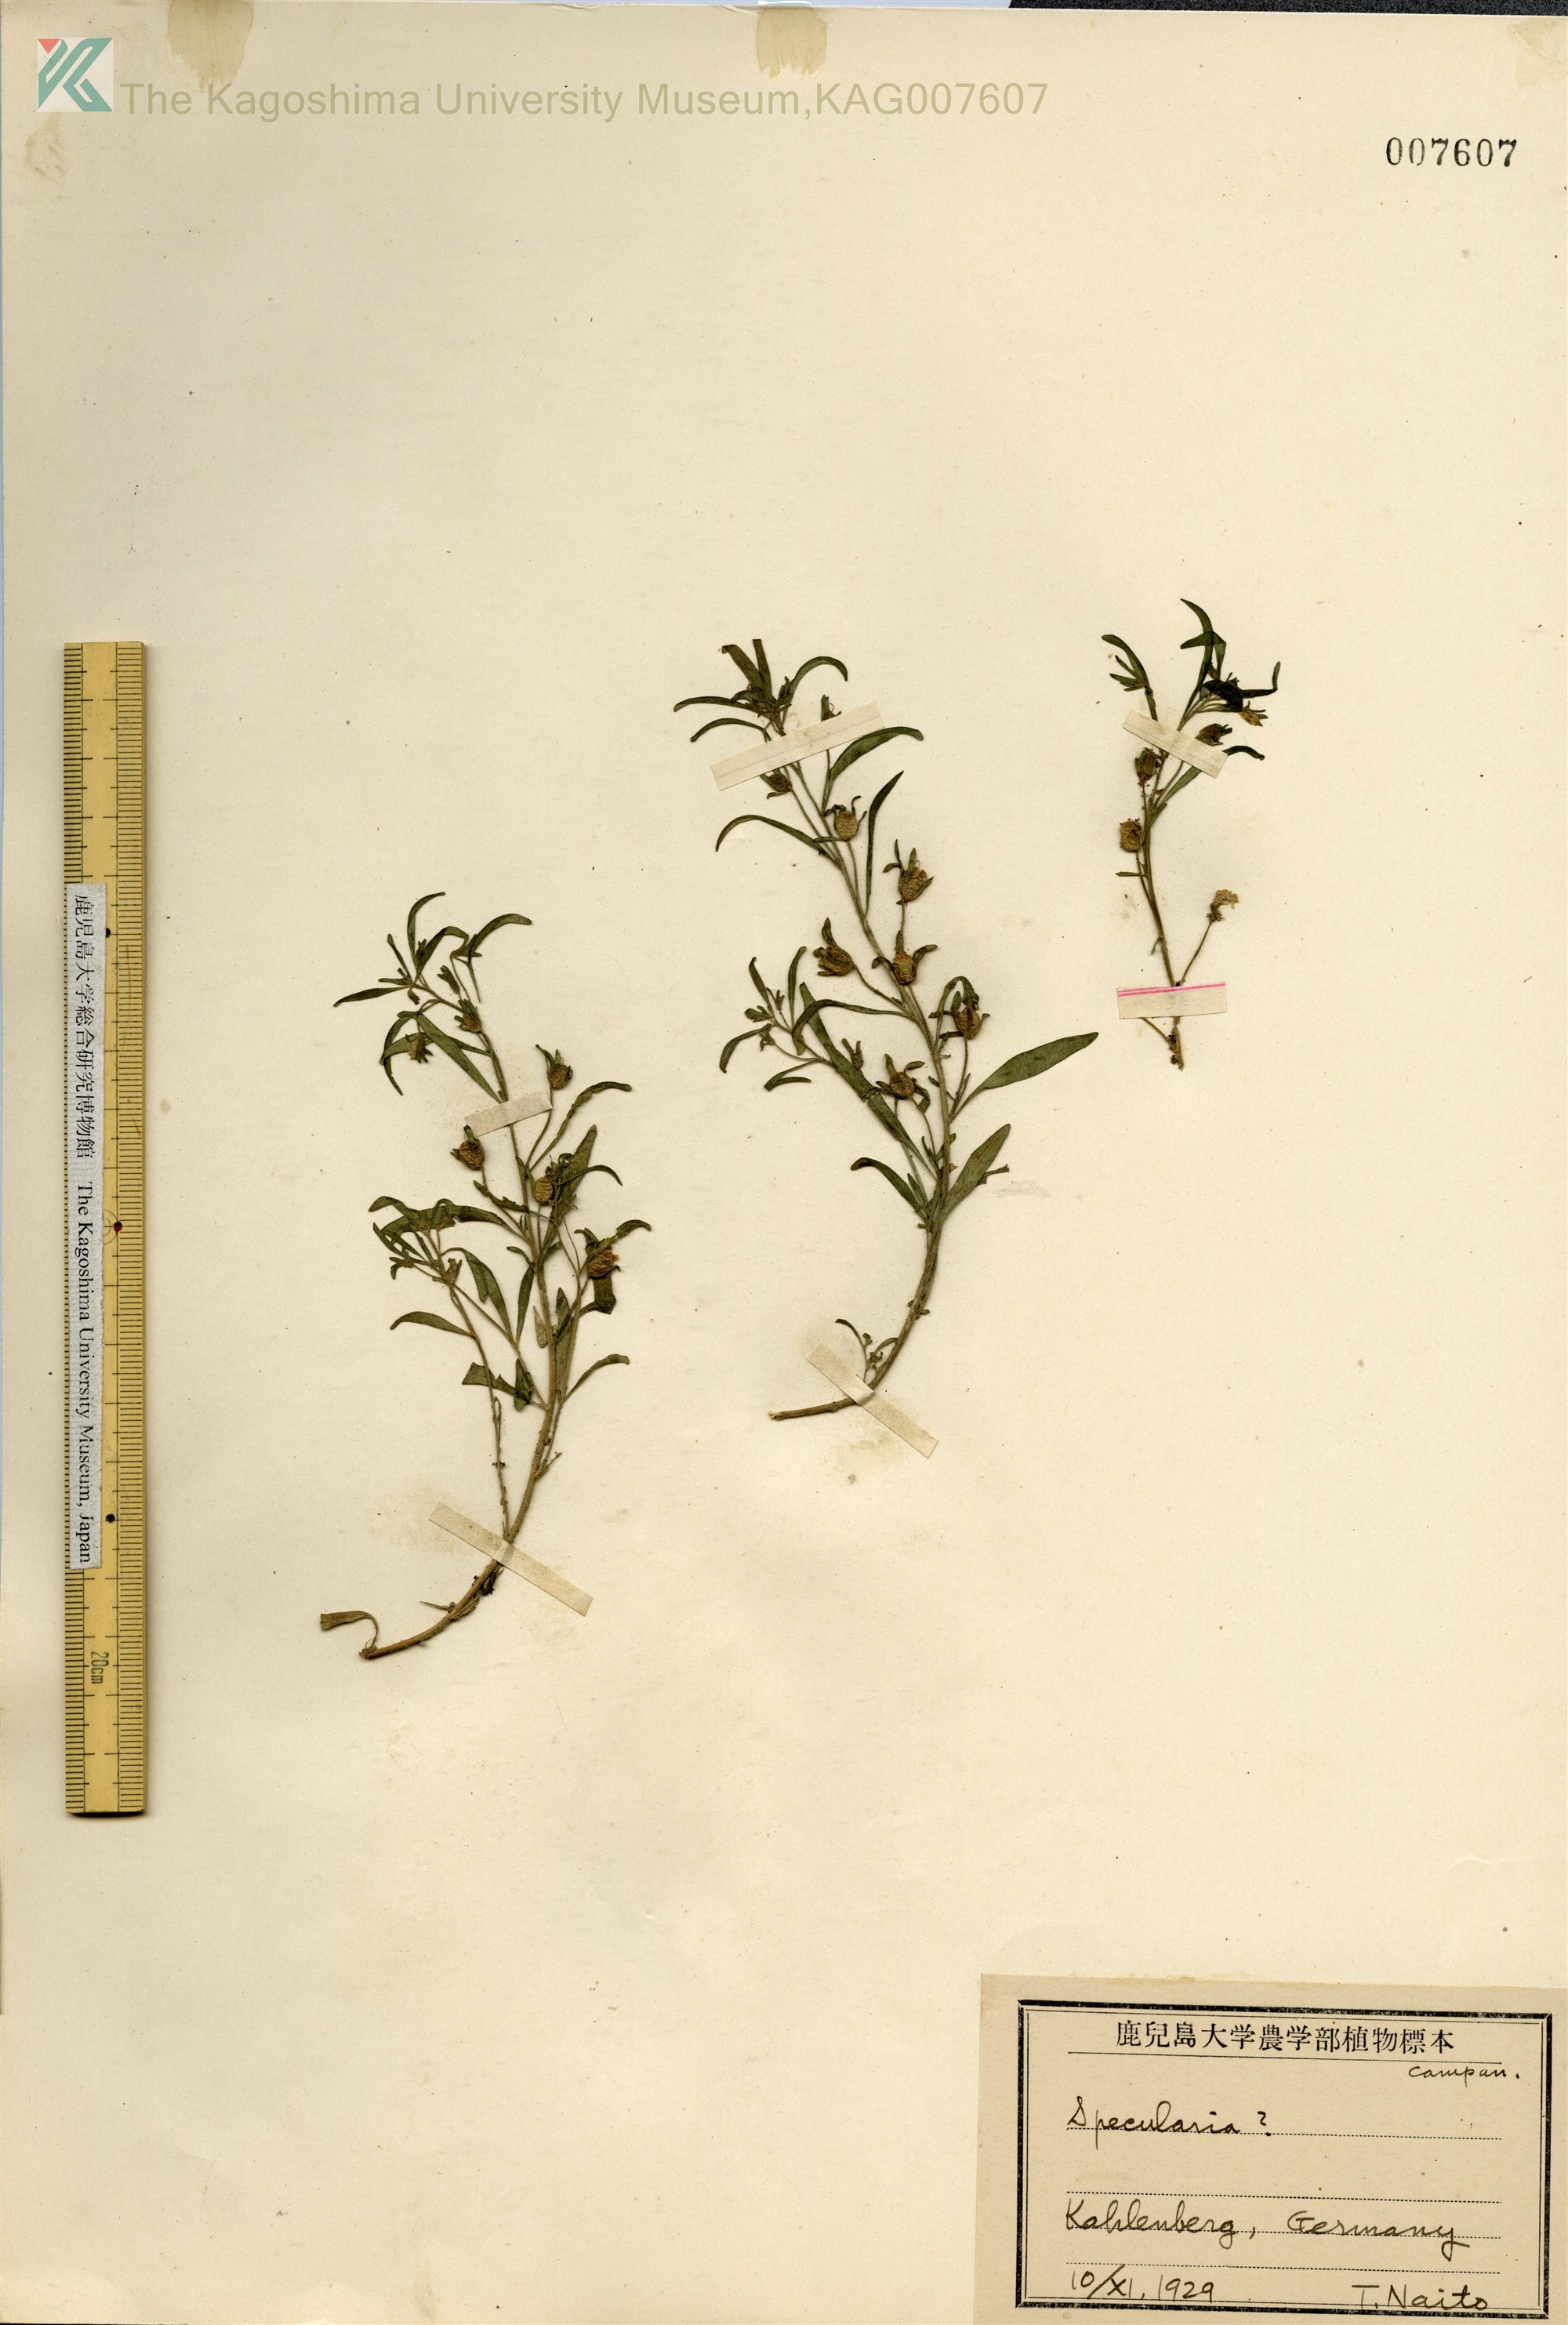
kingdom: Plantae
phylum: Tracheophyta
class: Magnoliopsida
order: Asterales
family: Campanulaceae
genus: Triodanis
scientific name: Triodanis perfoliata
